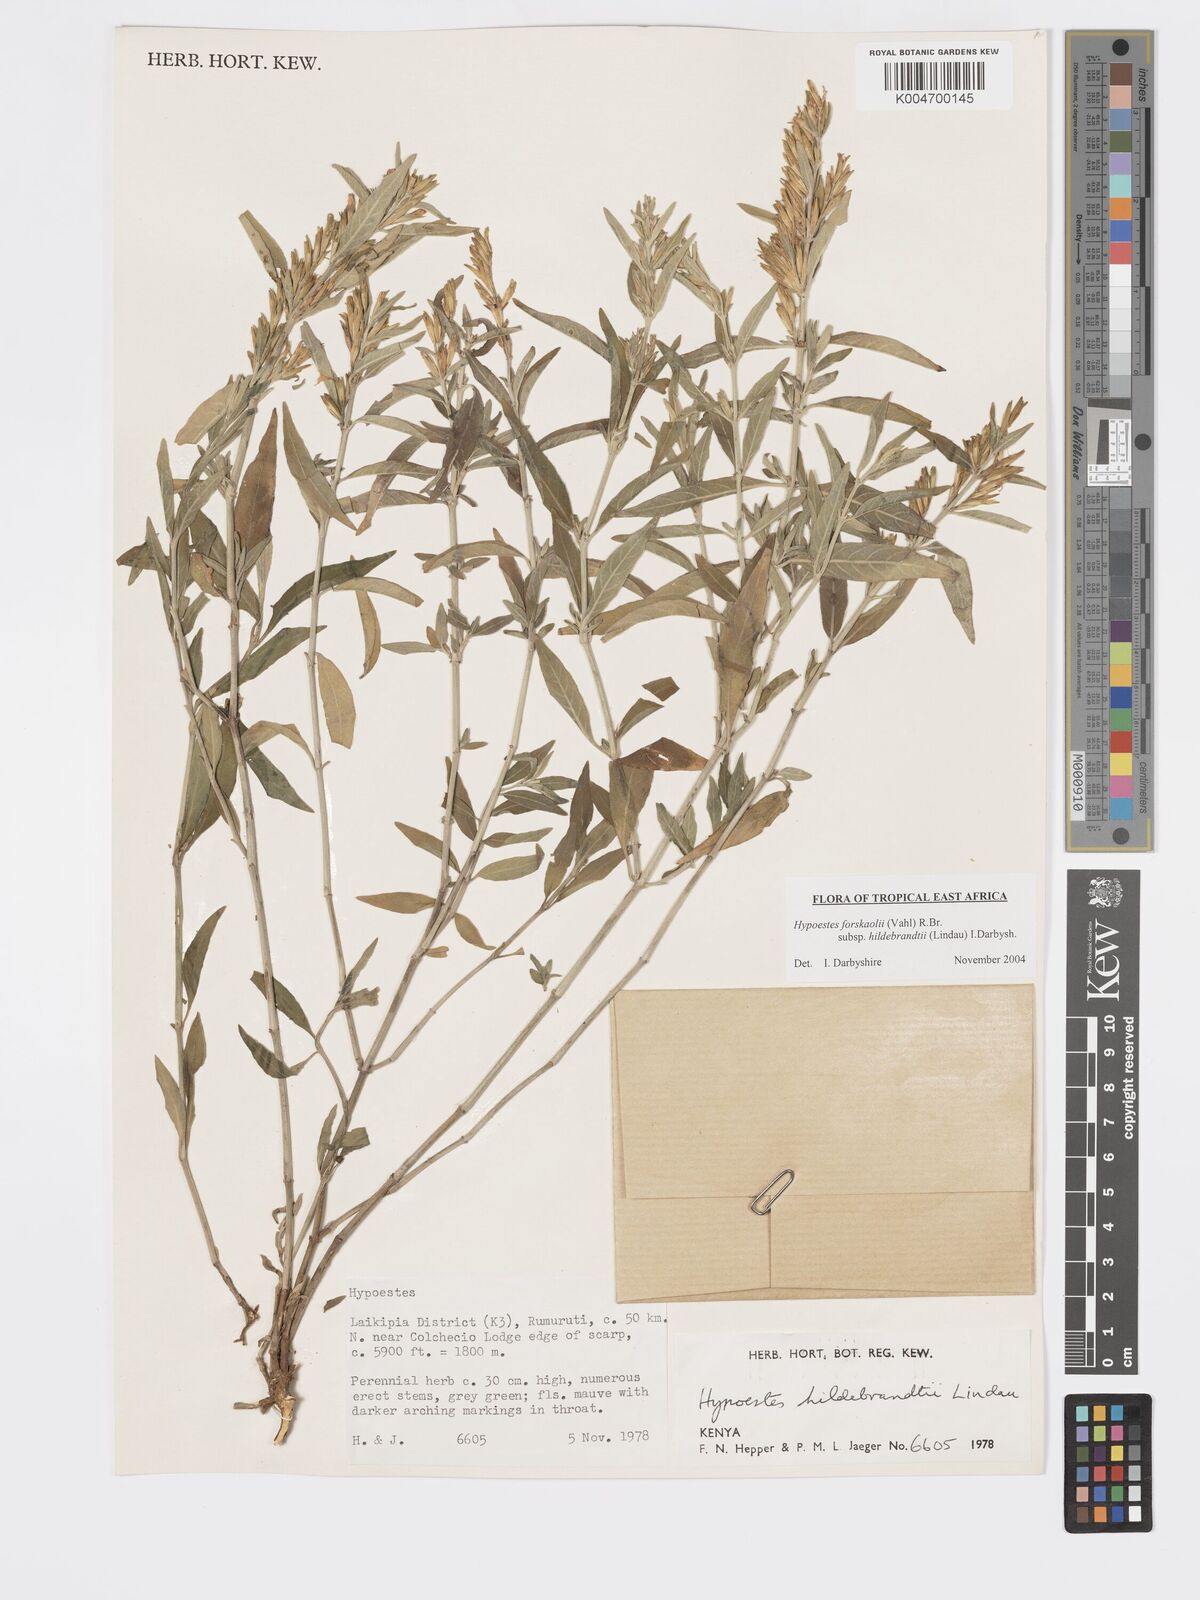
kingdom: Plantae
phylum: Tracheophyta
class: Magnoliopsida
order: Lamiales
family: Acanthaceae
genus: Hypoestes
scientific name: Hypoestes forskaolii
